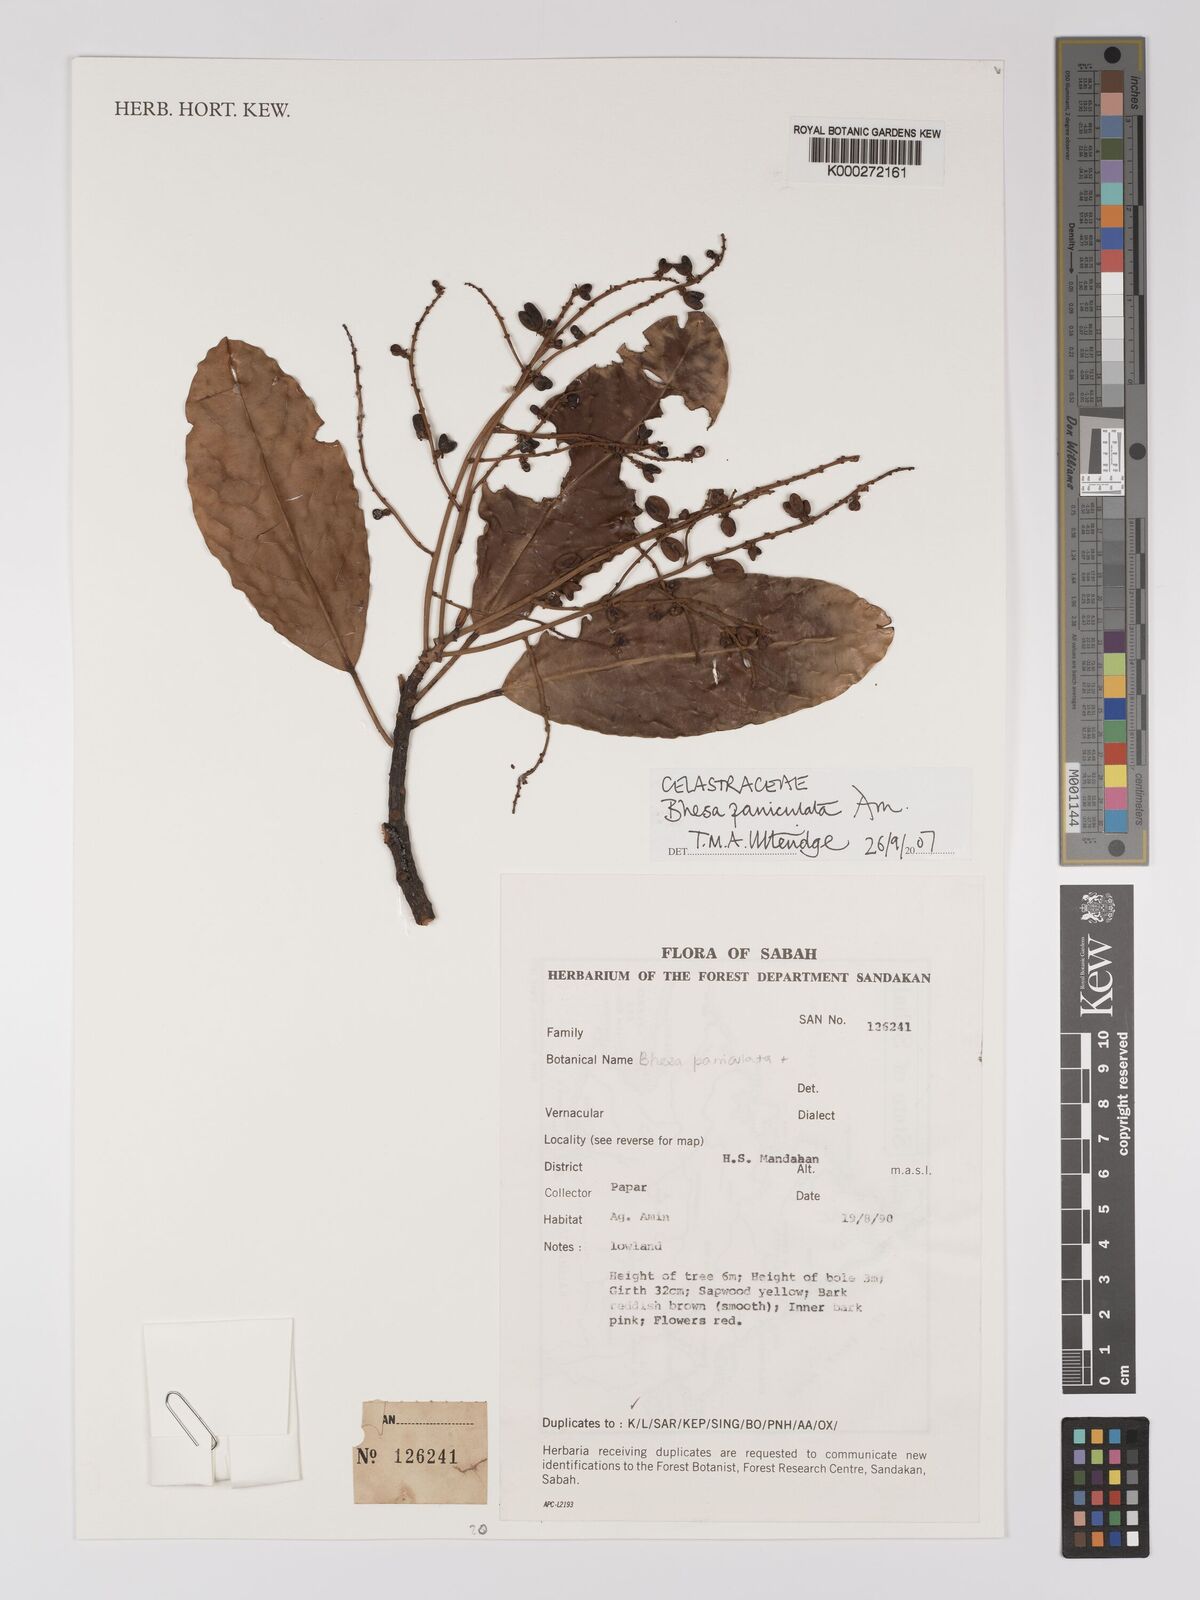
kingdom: Plantae
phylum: Tracheophyta
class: Magnoliopsida
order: Malpighiales
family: Centroplacaceae
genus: Bhesa
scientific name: Bhesa paniculata
